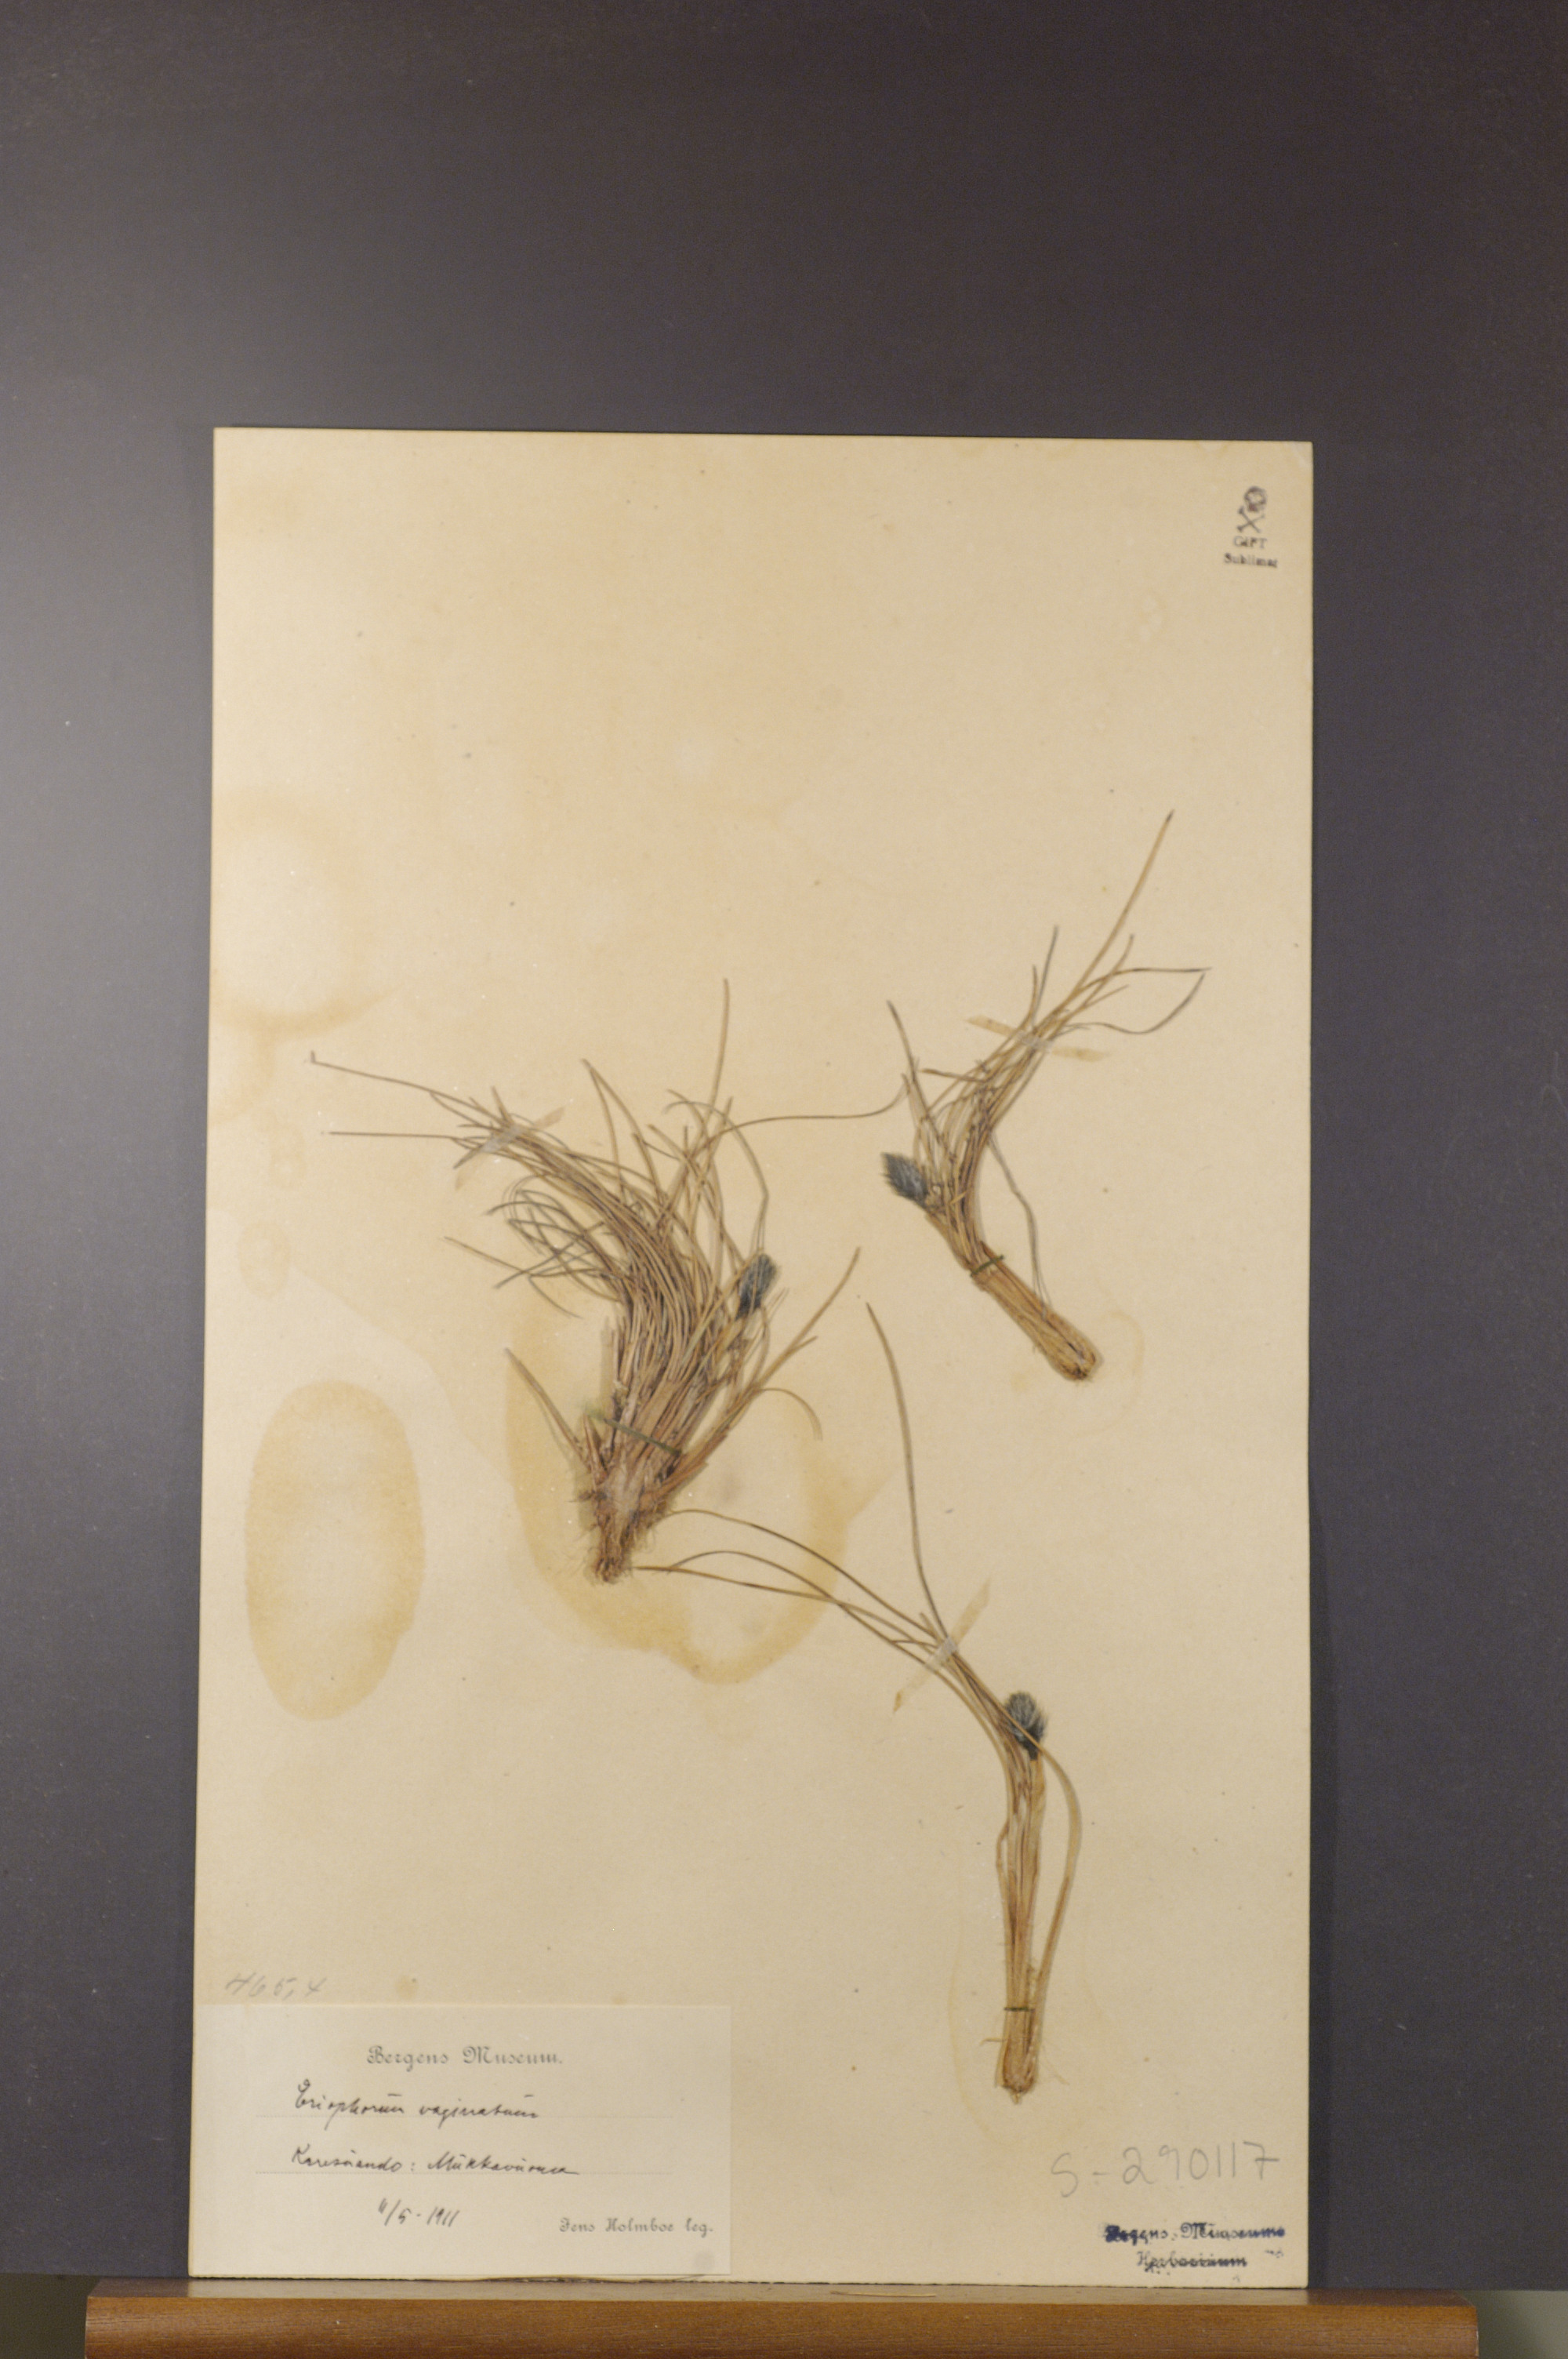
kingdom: Plantae
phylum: Tracheophyta
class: Liliopsida
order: Poales
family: Cyperaceae
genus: Eriophorum
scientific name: Eriophorum vaginatum
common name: Hare's-tail cottongrass
